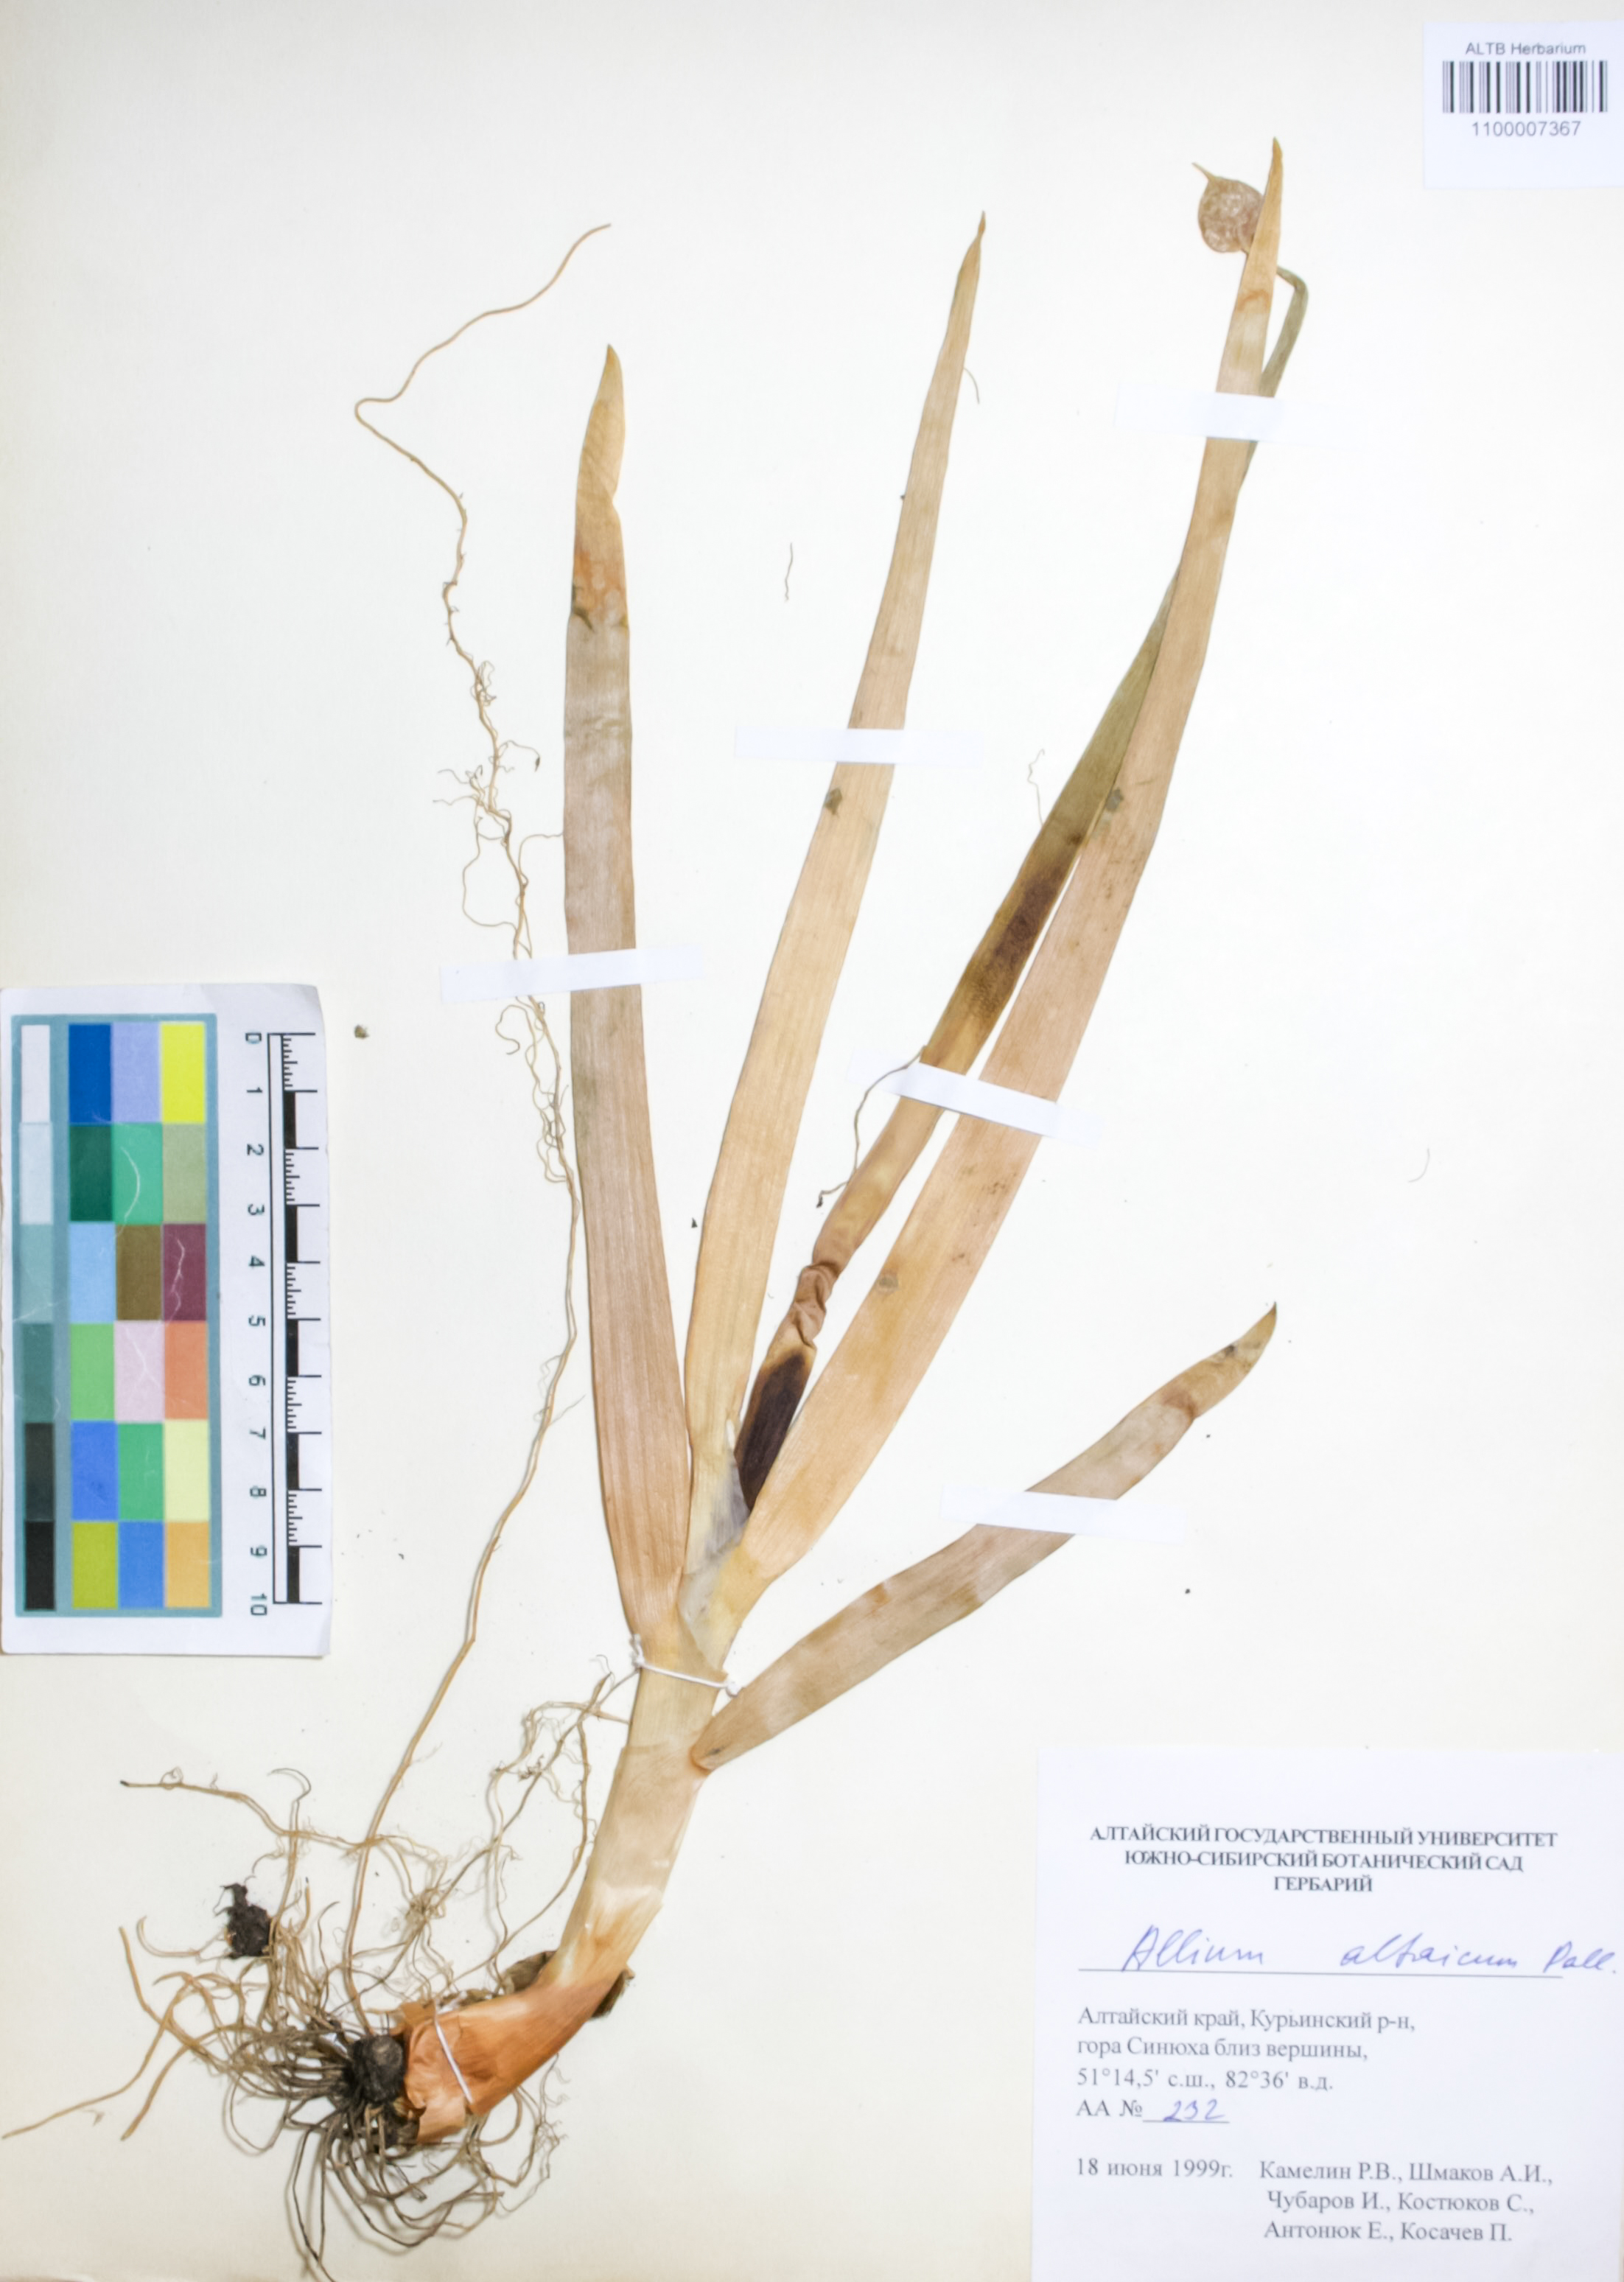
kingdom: Plantae
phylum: Tracheophyta
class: Liliopsida
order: Asparagales
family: Amaryllidaceae
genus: Allium
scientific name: Allium altaicum
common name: Altai onion
